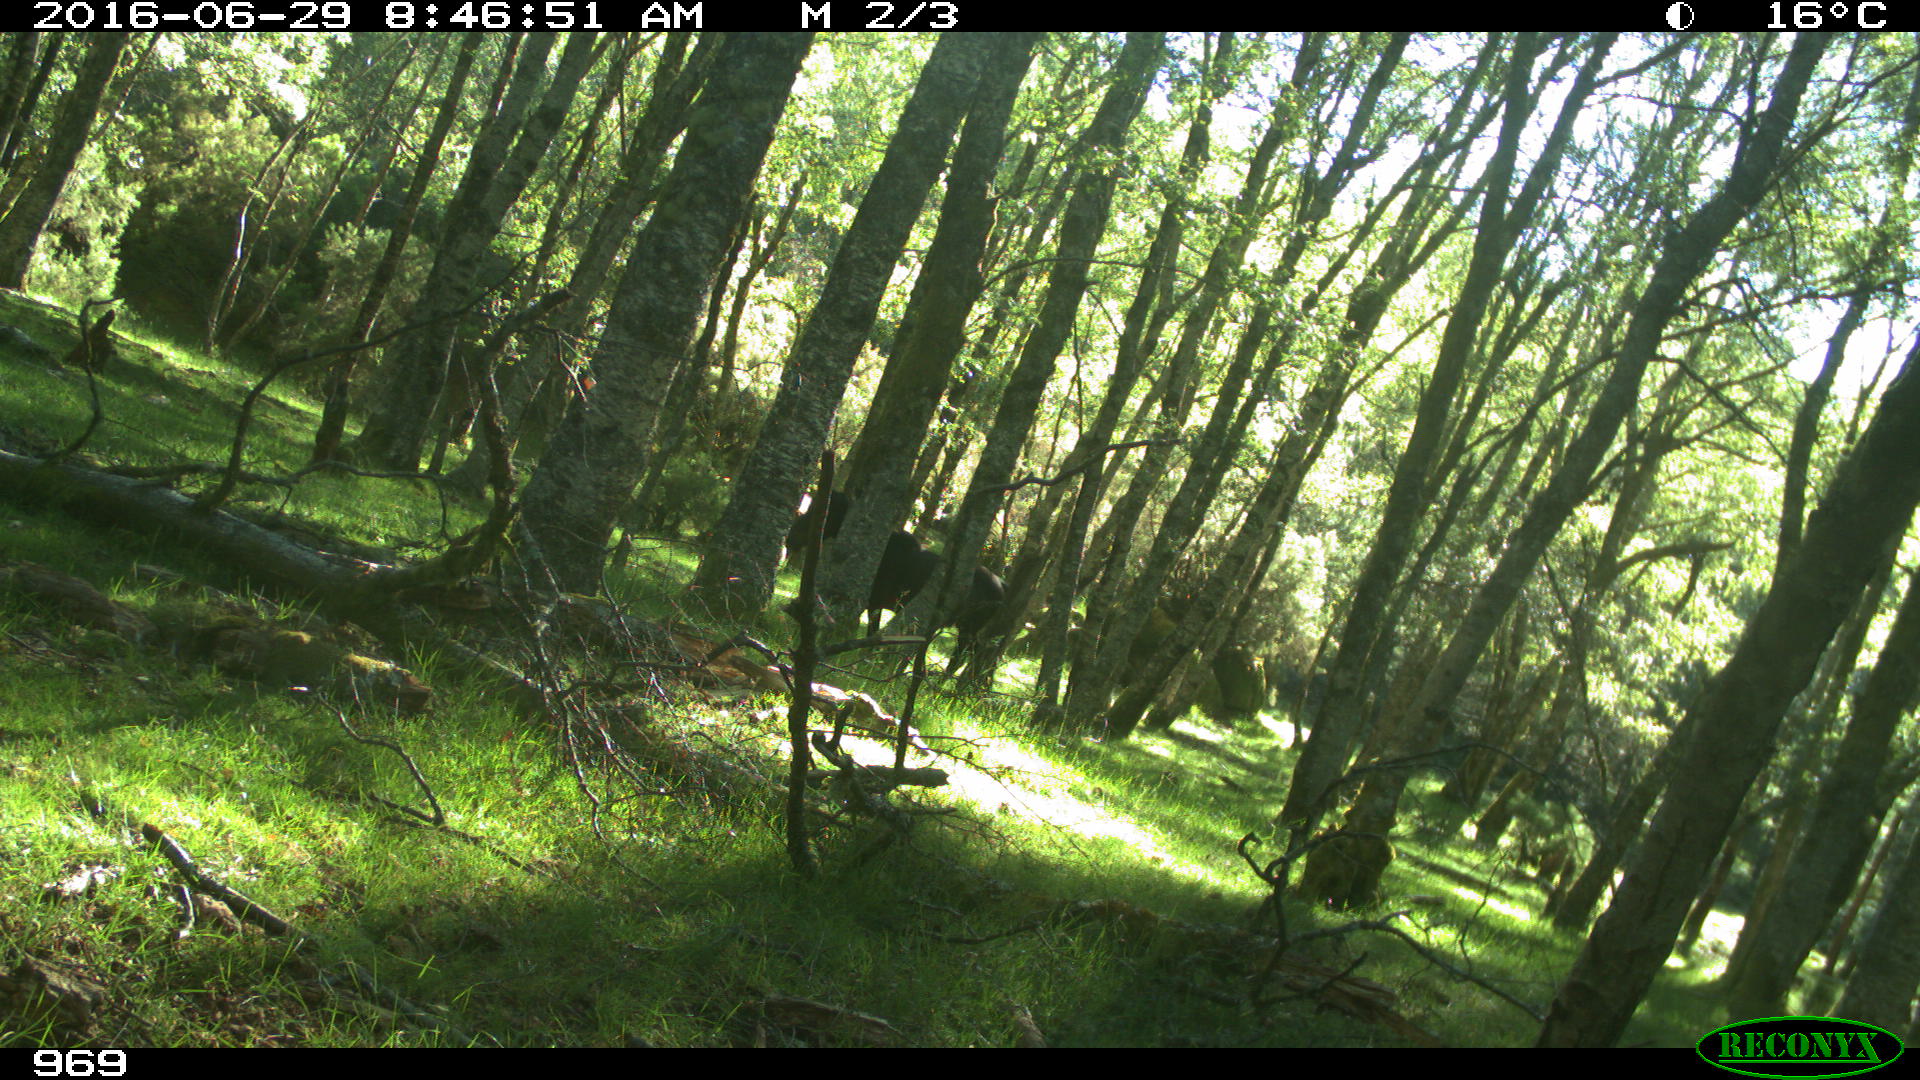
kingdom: Animalia
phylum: Chordata
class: Mammalia
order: Perissodactyla
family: Equidae
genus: Equus
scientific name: Equus caballus
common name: Horse
